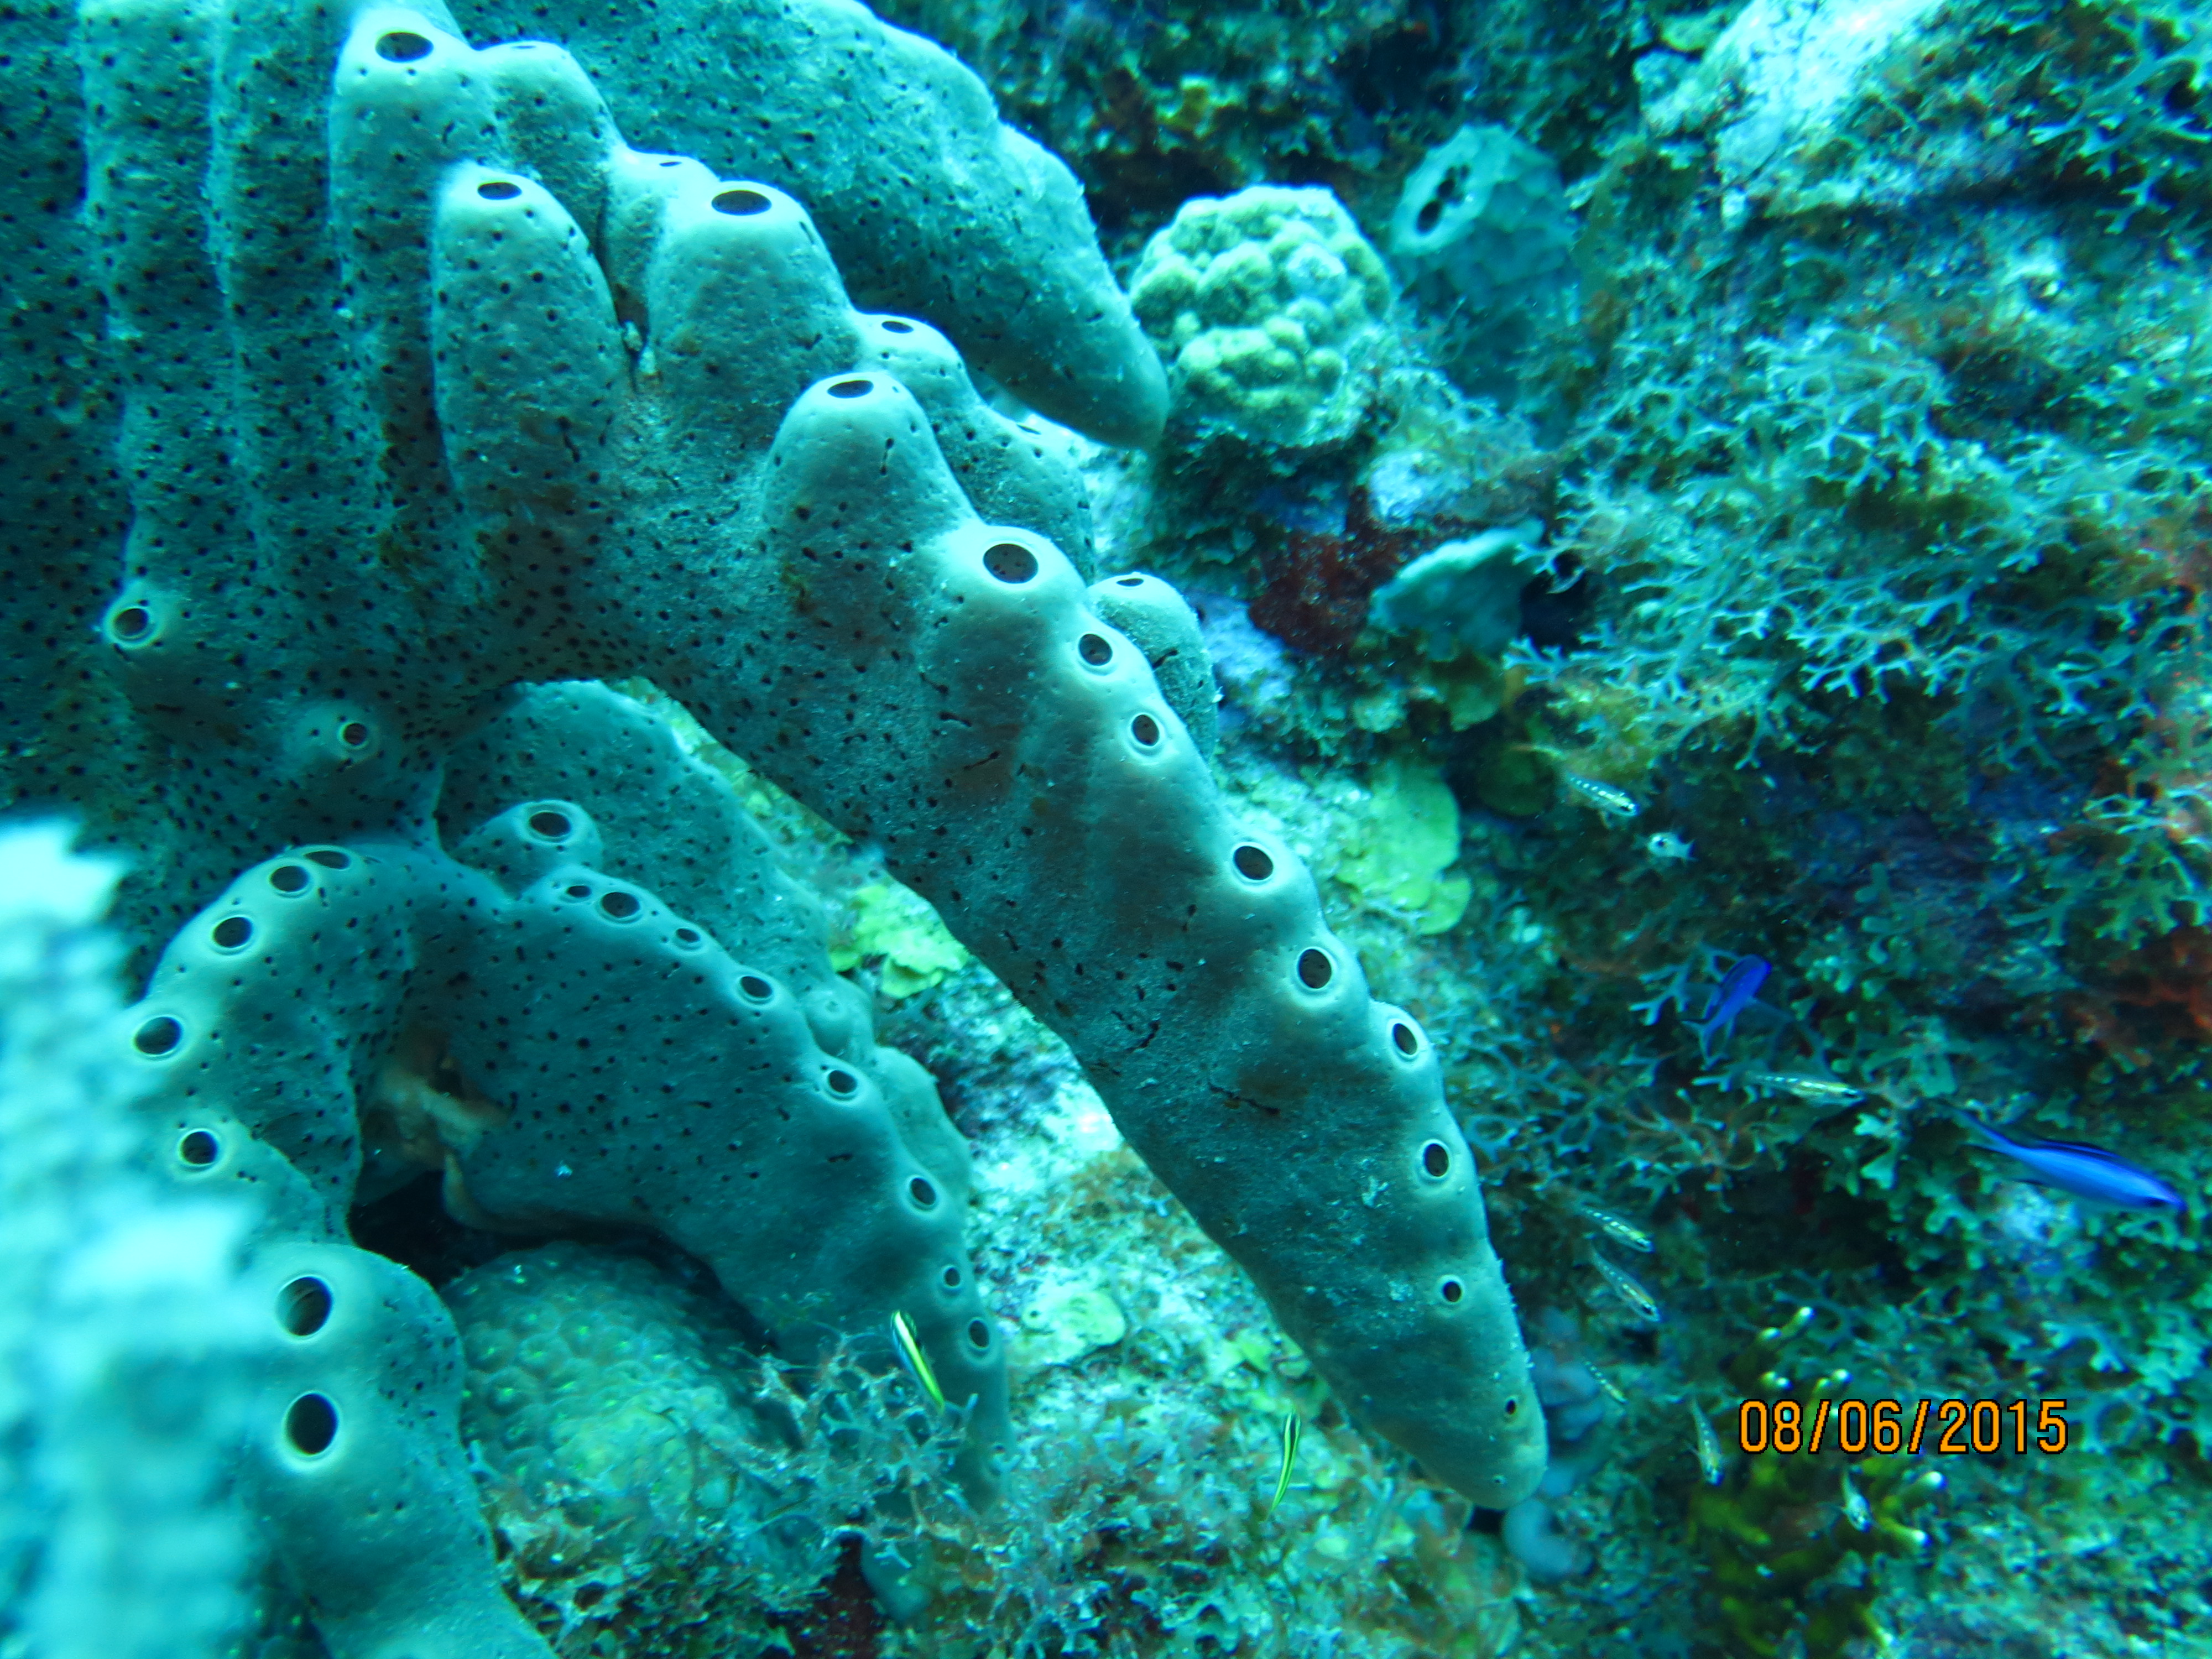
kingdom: Animalia
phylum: Porifera
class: Demospongiae
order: Agelasida
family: Agelasidae
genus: Agelas
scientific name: Agelas conifera
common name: Brown tube sponge
